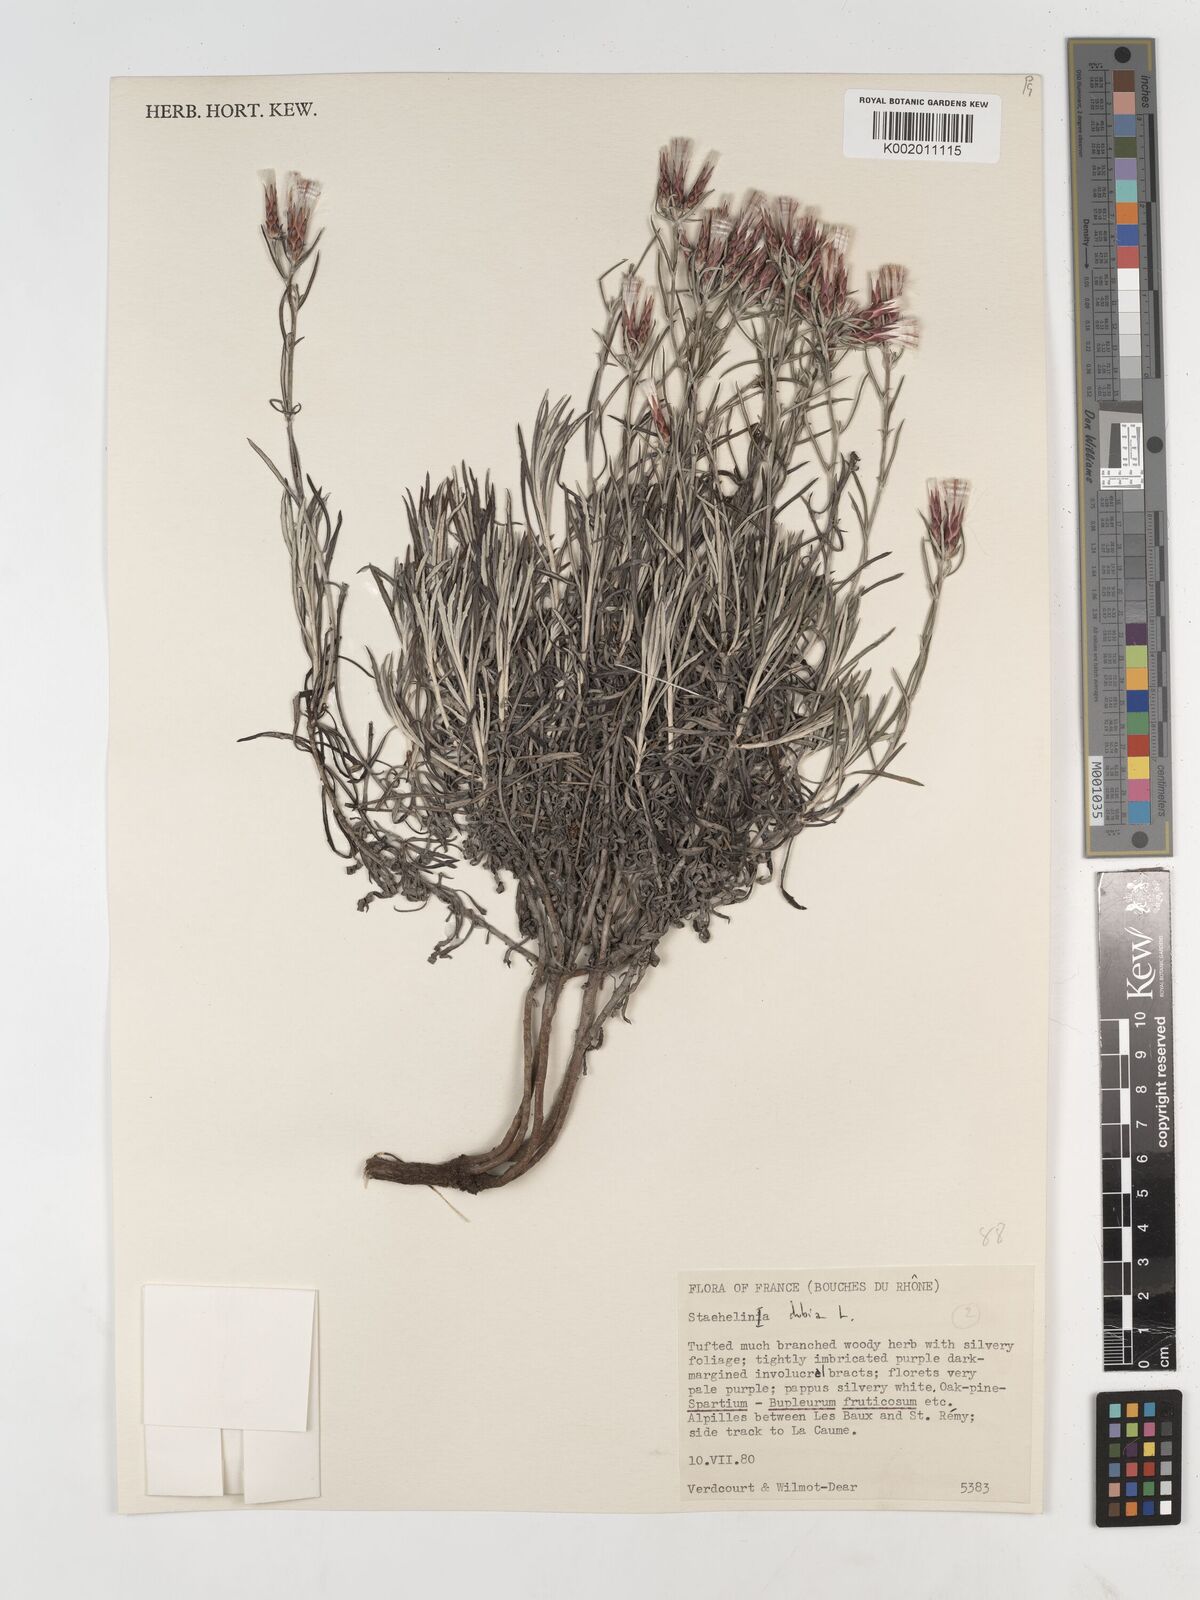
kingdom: Plantae
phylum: Tracheophyta
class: Magnoliopsida
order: Asterales
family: Asteraceae
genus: Staehelina
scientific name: Staehelina dubia
